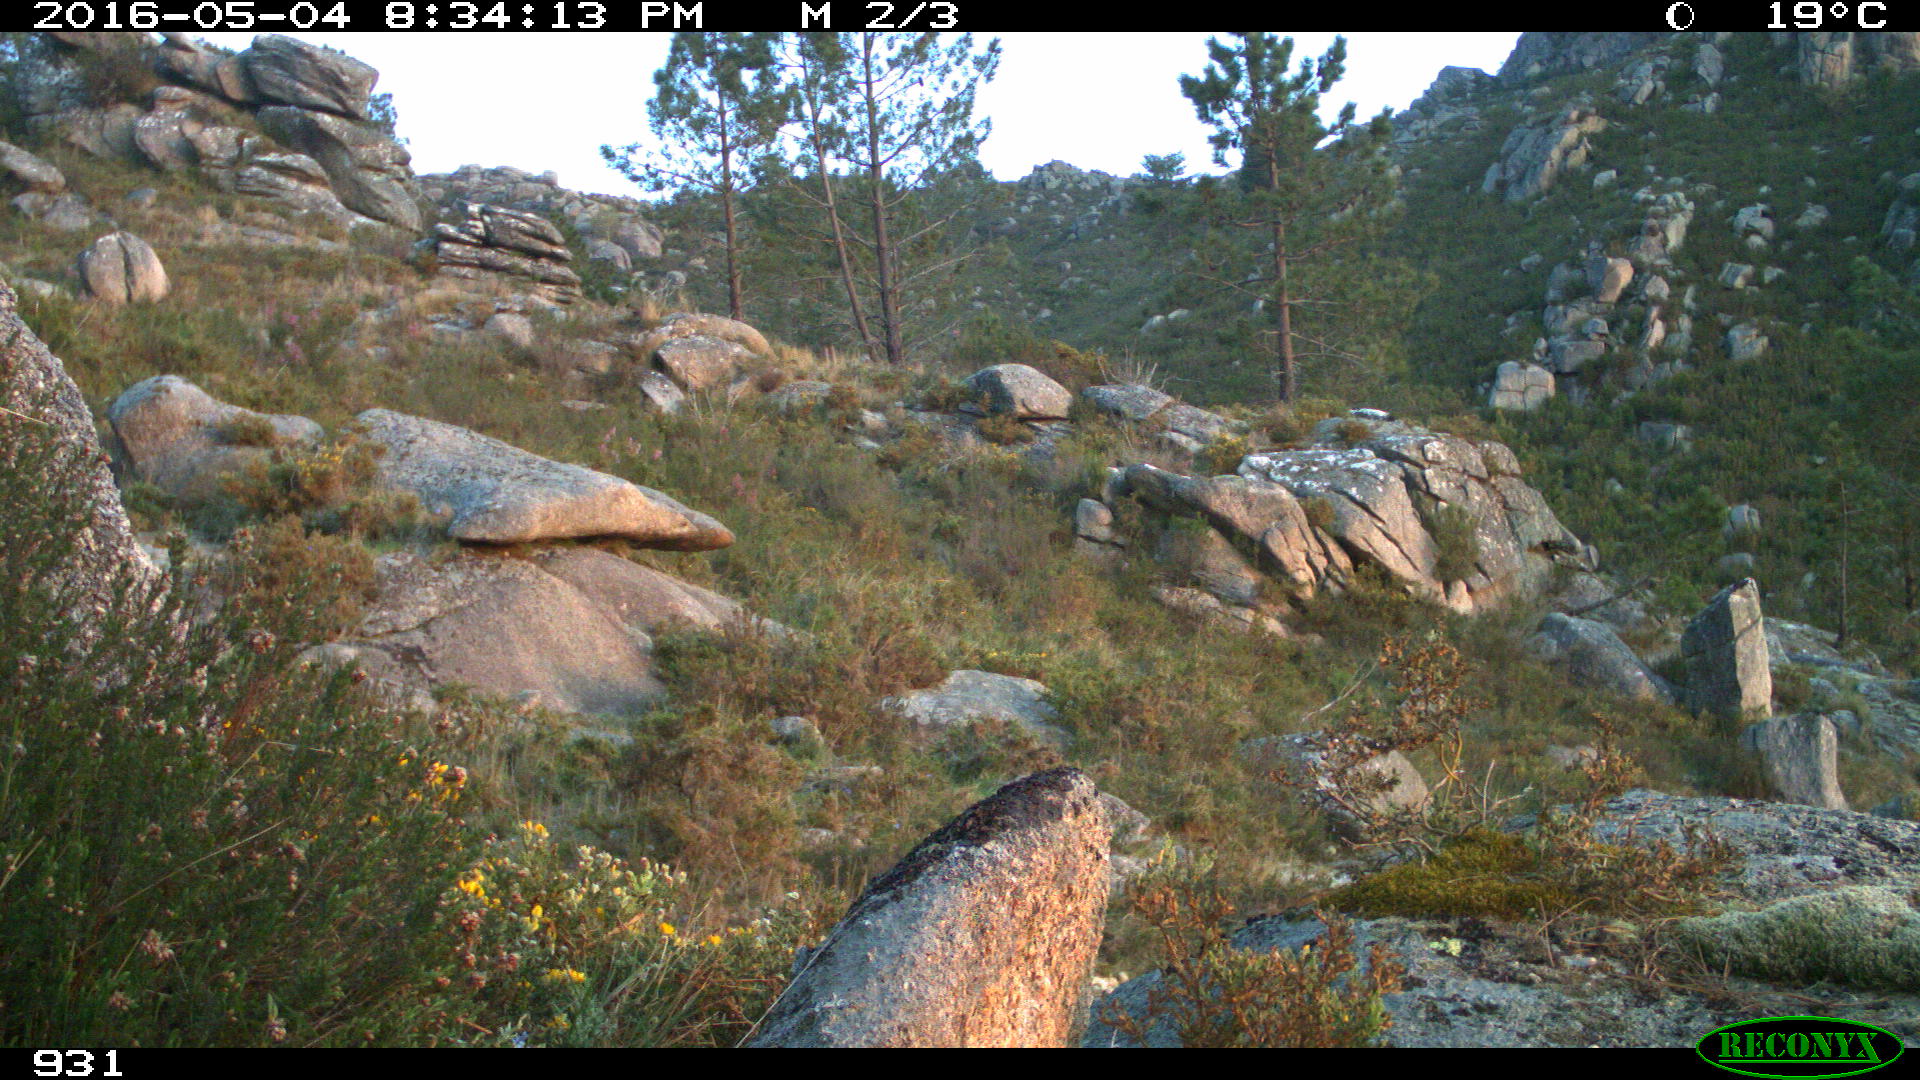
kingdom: Animalia
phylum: Chordata
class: Mammalia
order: Perissodactyla
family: Equidae
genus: Equus
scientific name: Equus caballus
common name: Horse
